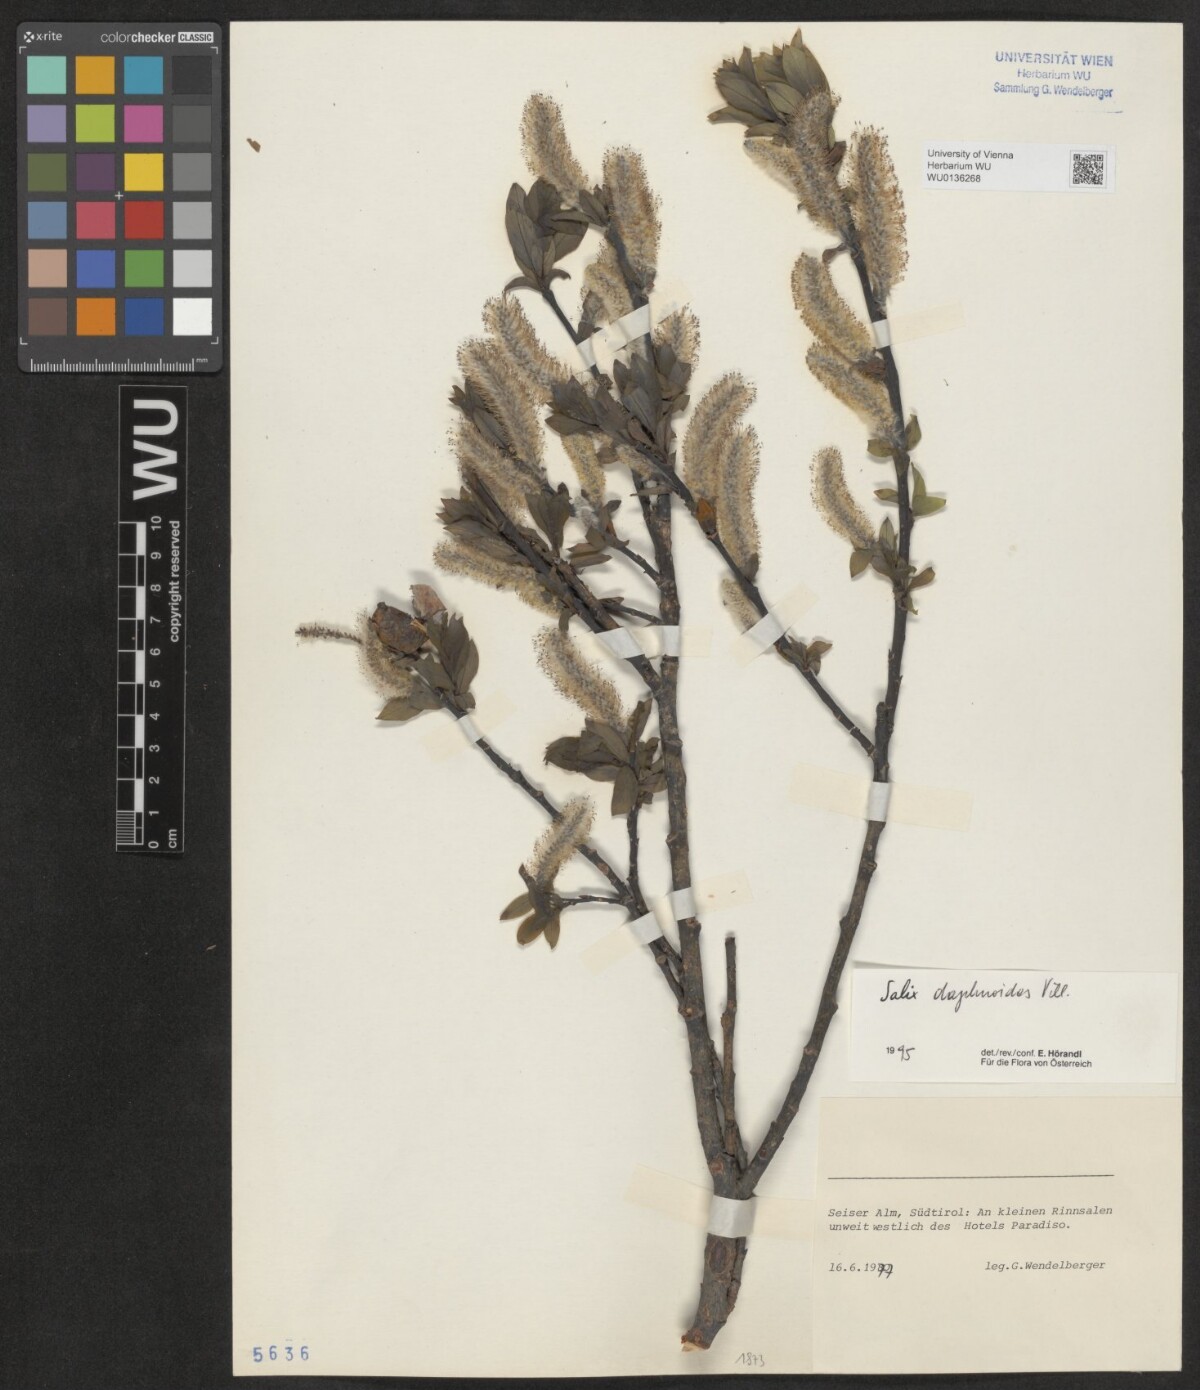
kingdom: Plantae
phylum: Tracheophyta
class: Magnoliopsida
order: Malpighiales
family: Salicaceae
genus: Salix
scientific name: Salix daphnoides
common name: European violet-willow
